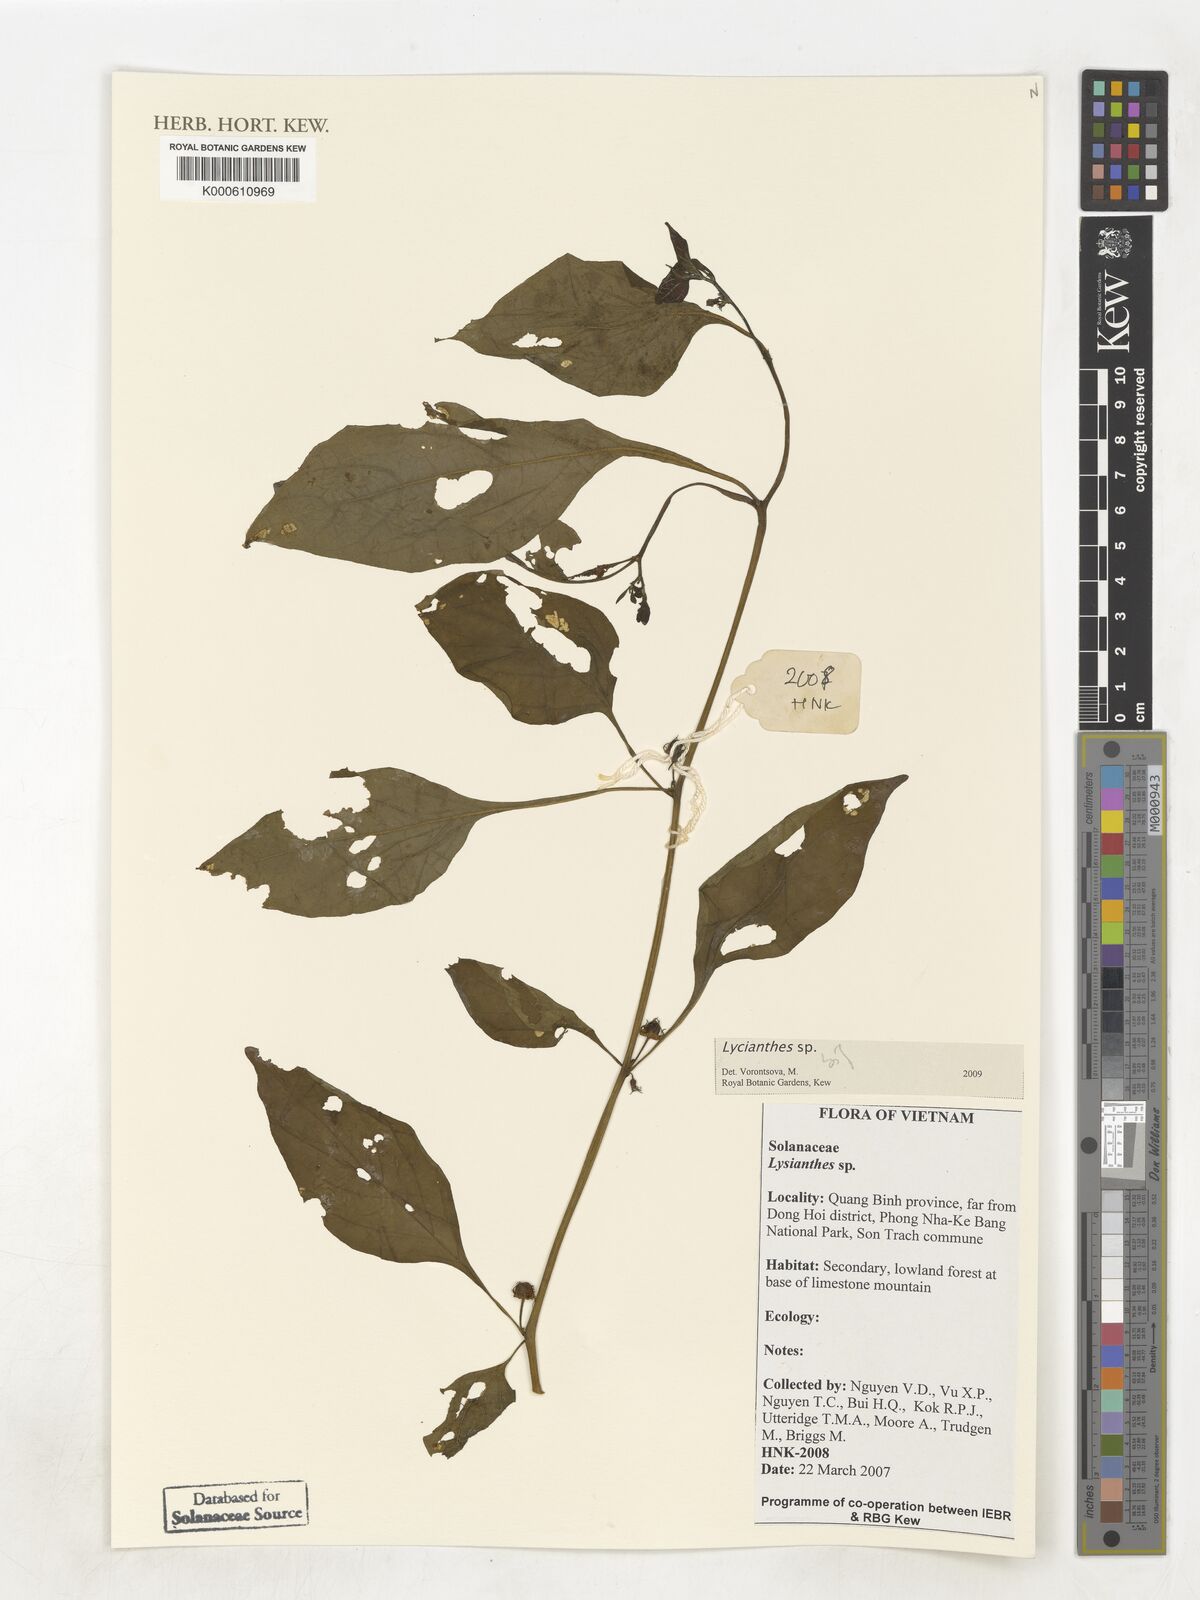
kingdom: Plantae
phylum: Tracheophyta
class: Magnoliopsida
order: Solanales
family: Solanaceae
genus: Lycianthes
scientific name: Lycianthes
